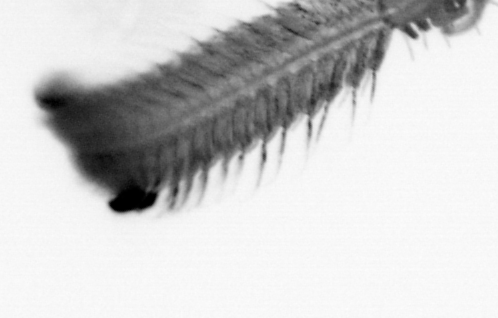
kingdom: Animalia
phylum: Annelida
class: Polychaeta
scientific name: Polychaeta
